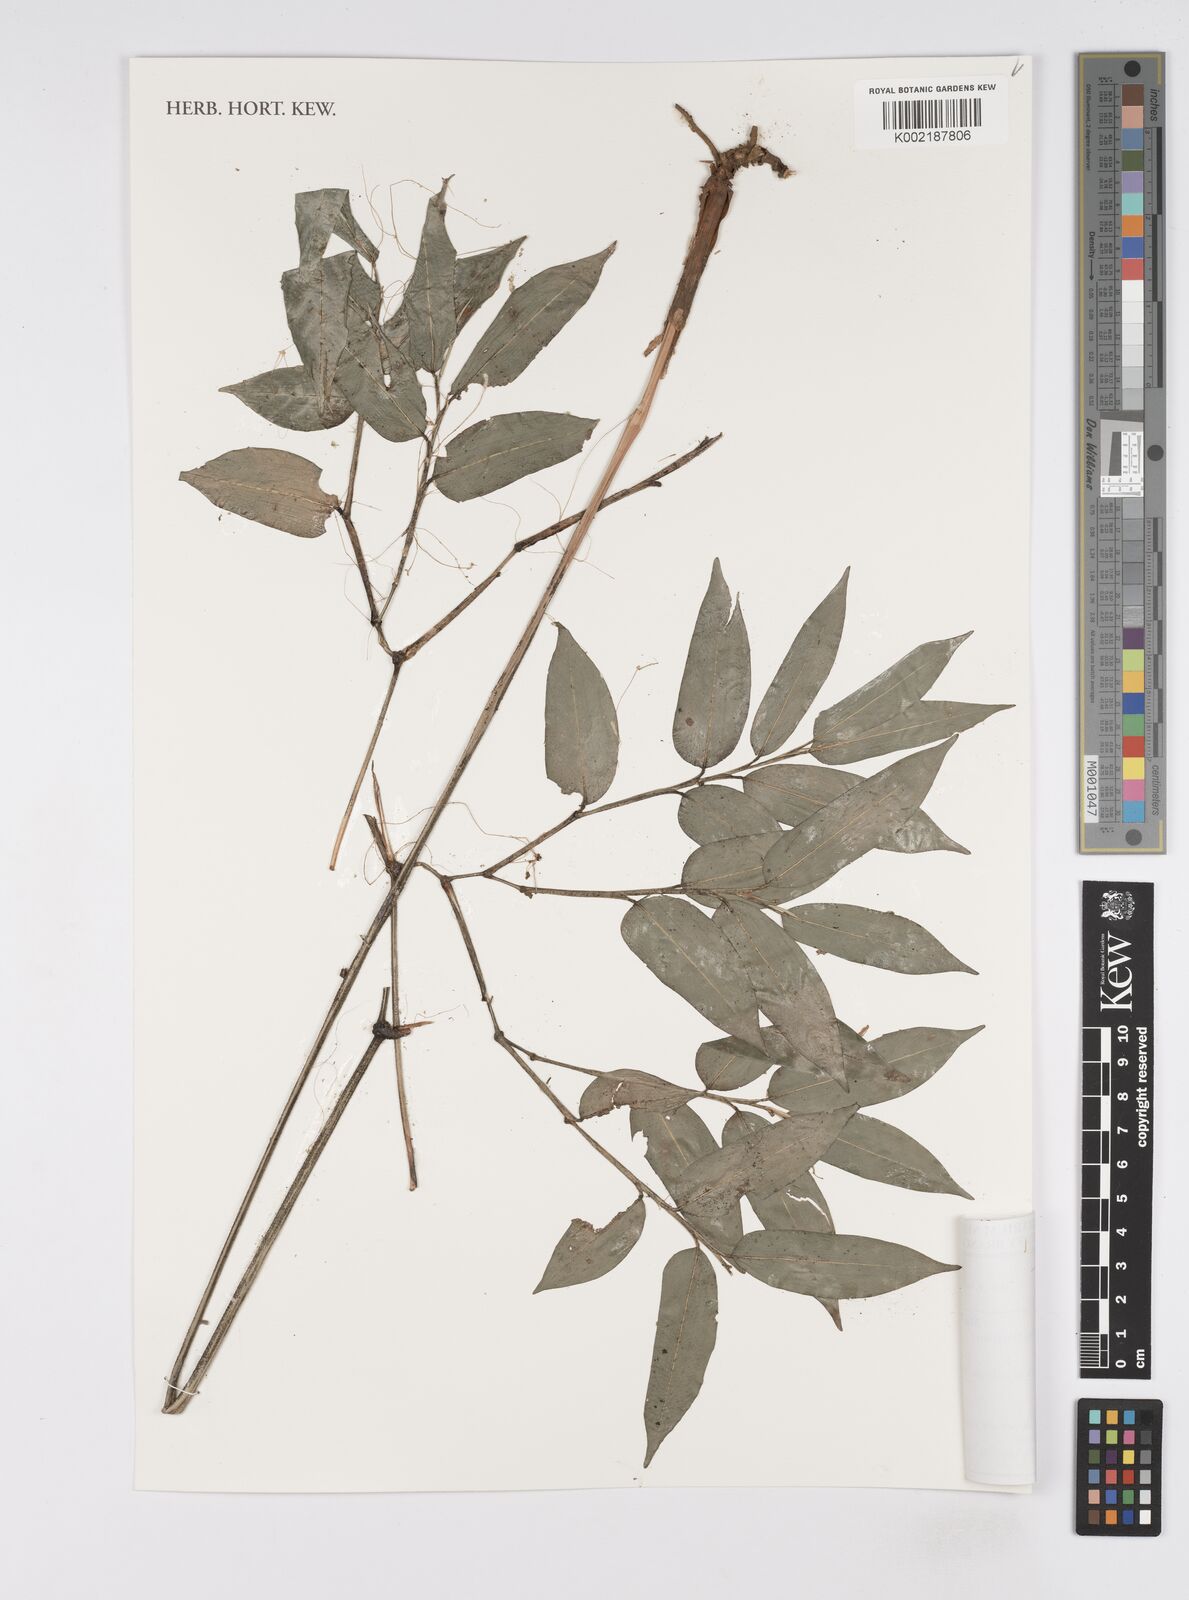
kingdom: Plantae
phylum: Tracheophyta
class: Liliopsida
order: Zingiberales
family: Marantaceae
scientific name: Marantaceae
